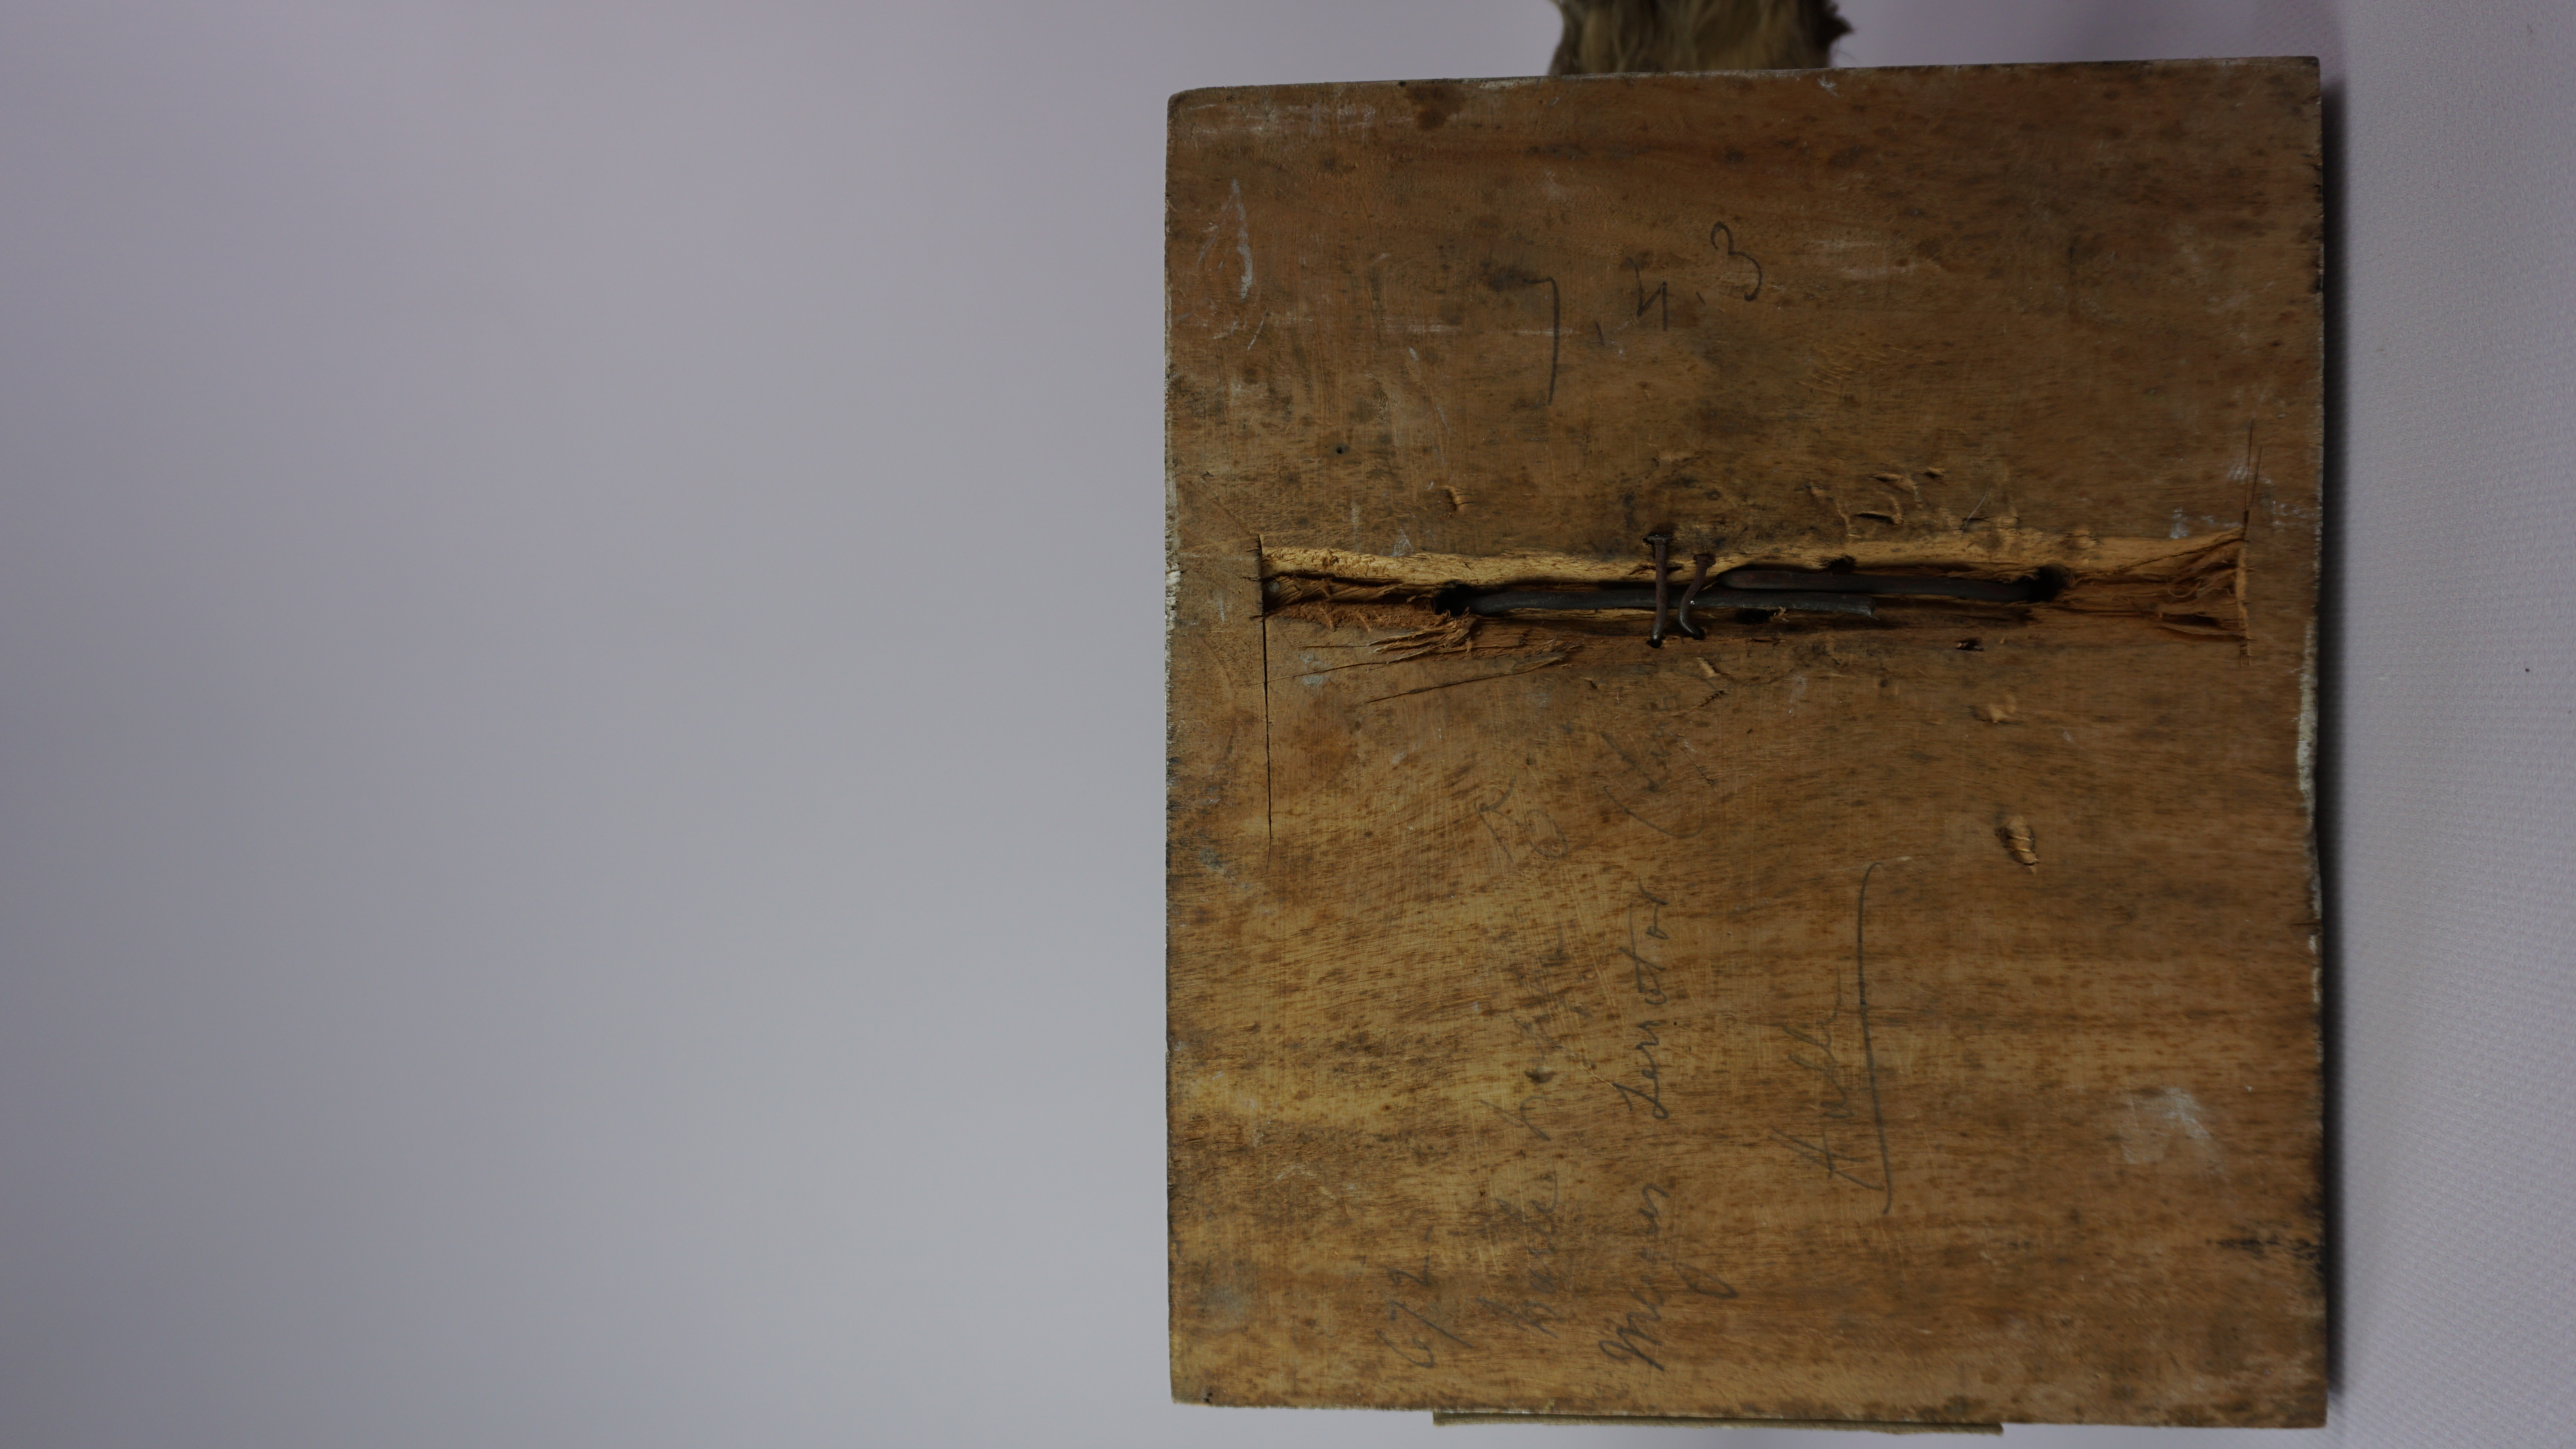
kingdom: Animalia
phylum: Chordata
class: Aves
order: Anseriformes
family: Anatidae
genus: Mergus
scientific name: Mergus serrator
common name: Red-breasted merganser
